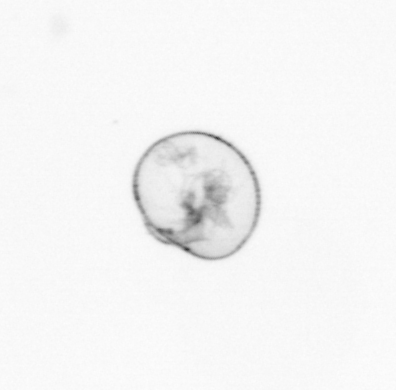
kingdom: Chromista
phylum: Myzozoa
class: Dinophyceae
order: Noctilucales
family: Noctilucaceae
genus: Noctiluca
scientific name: Noctiluca scintillans
